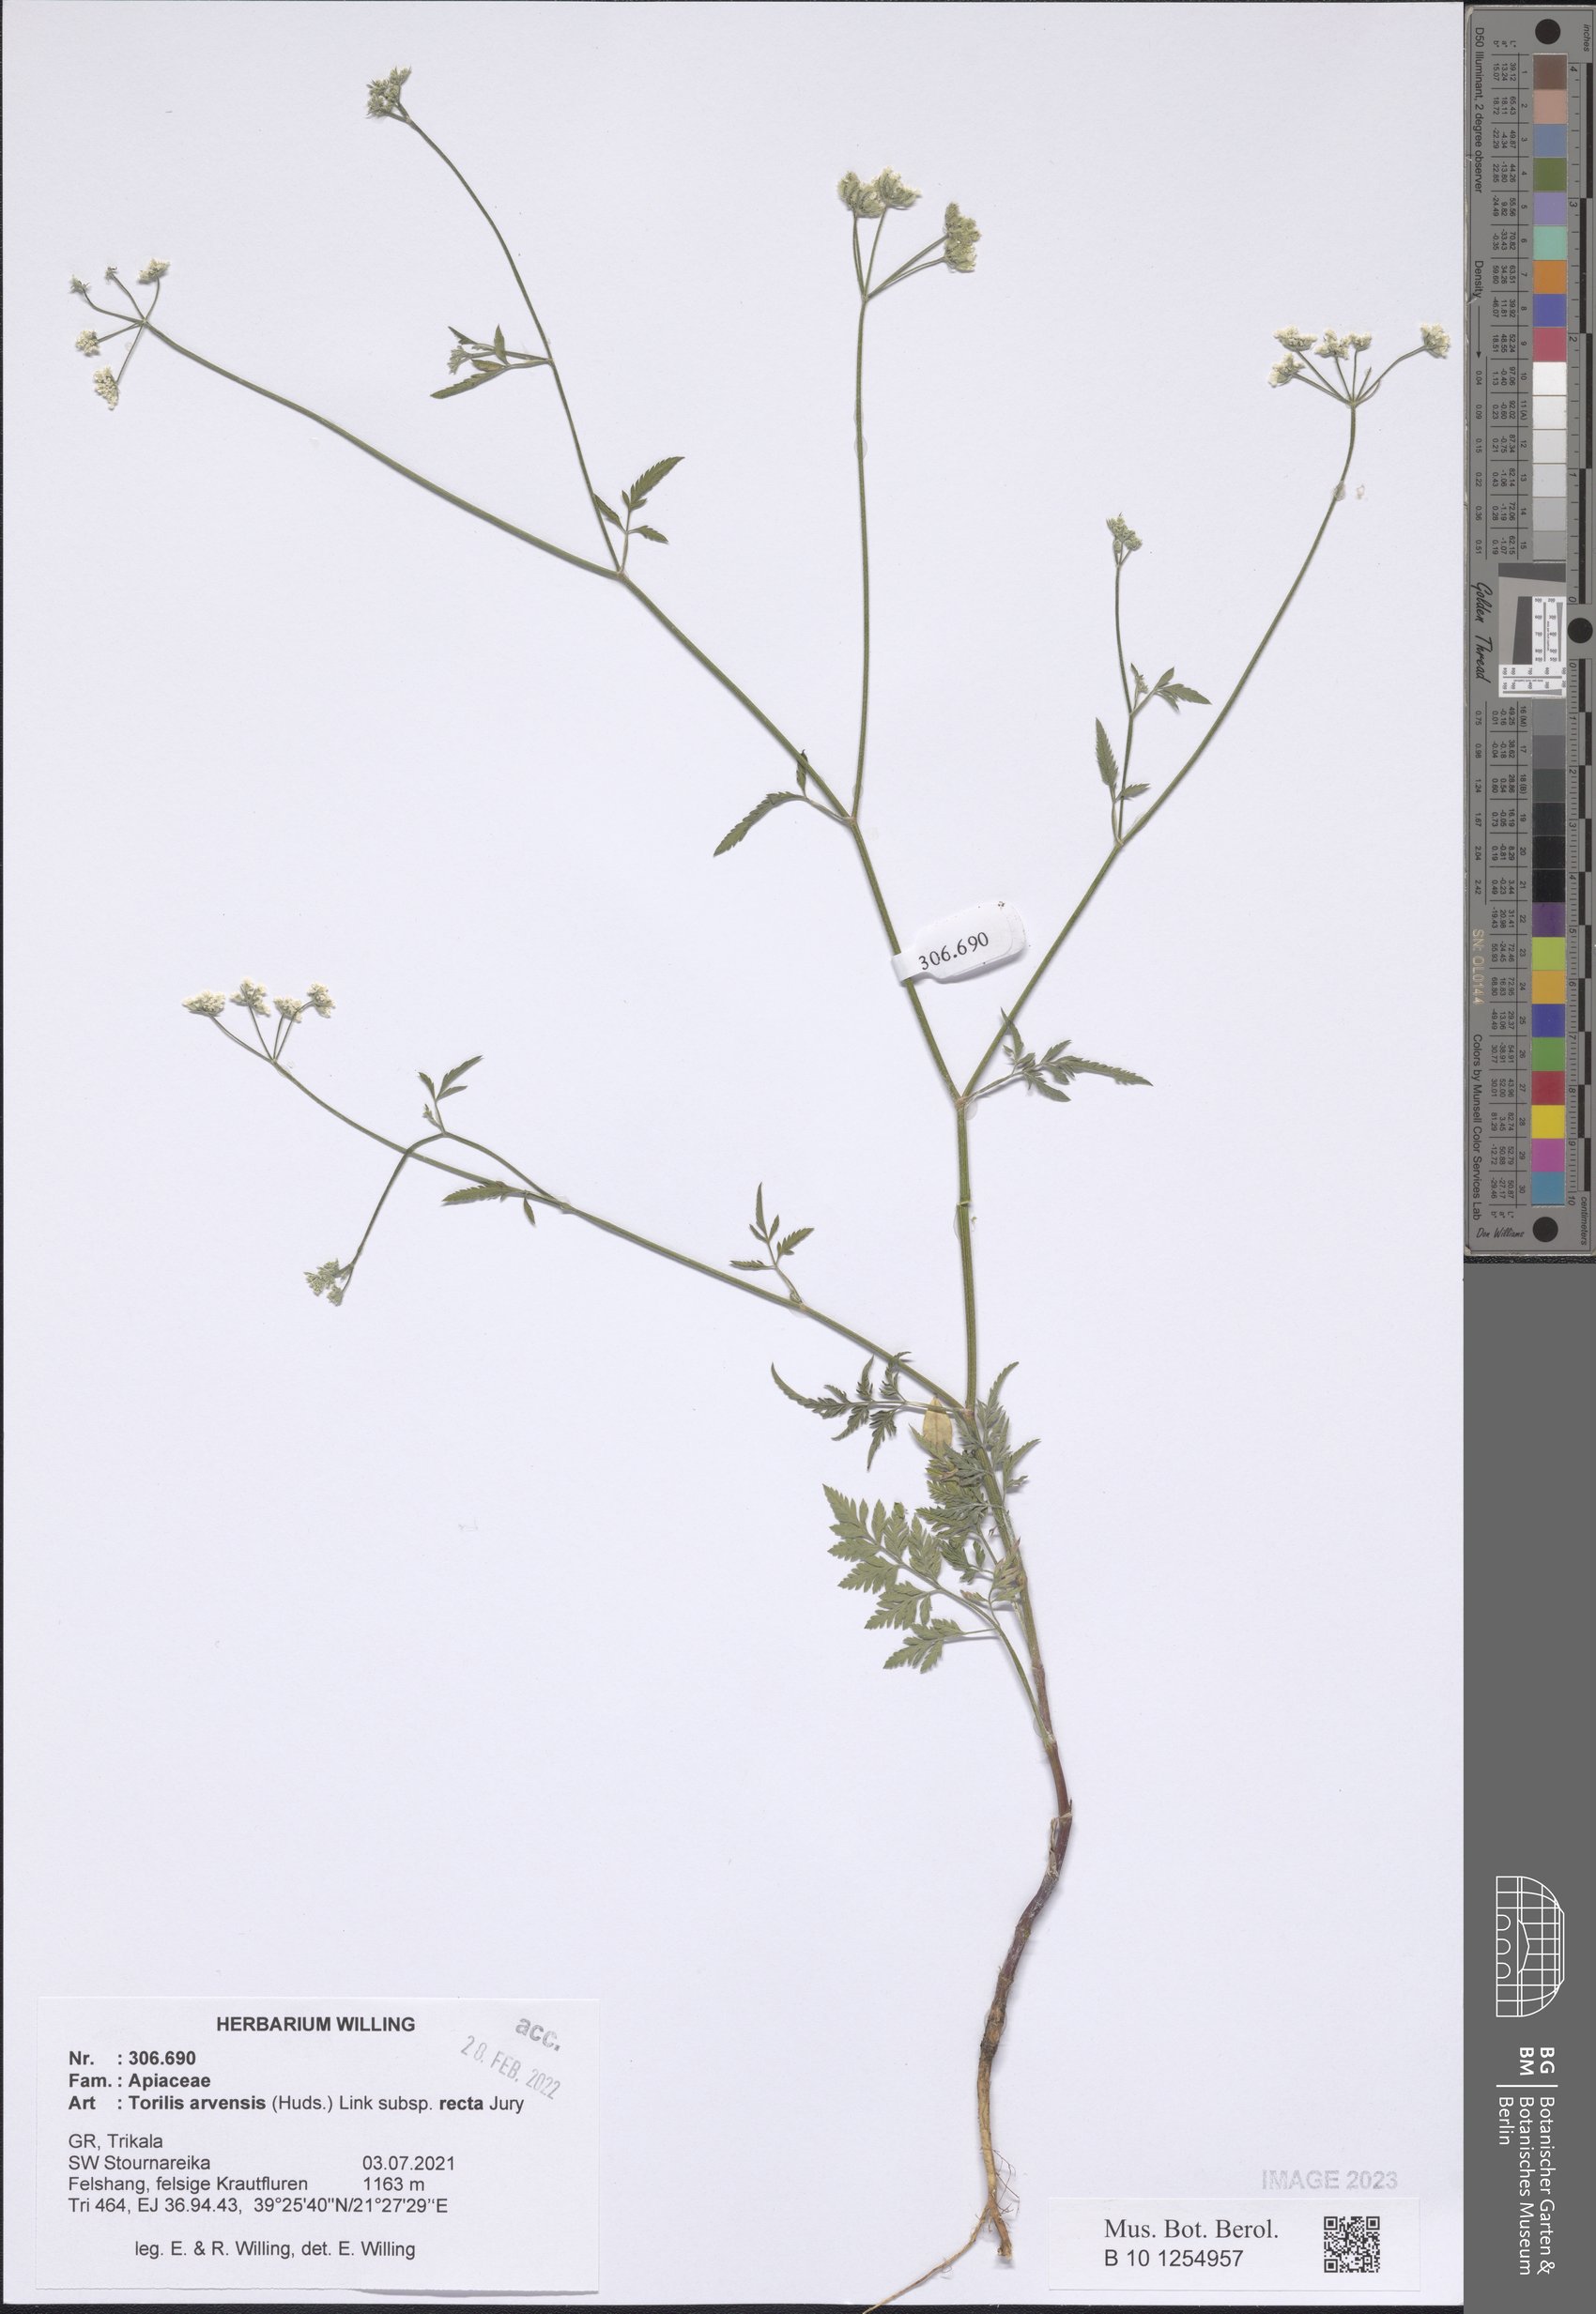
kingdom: Plantae
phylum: Tracheophyta
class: Magnoliopsida
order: Apiales
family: Apiaceae
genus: Torilis
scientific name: Torilis arvensis
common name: Spreading hedge-parsley
